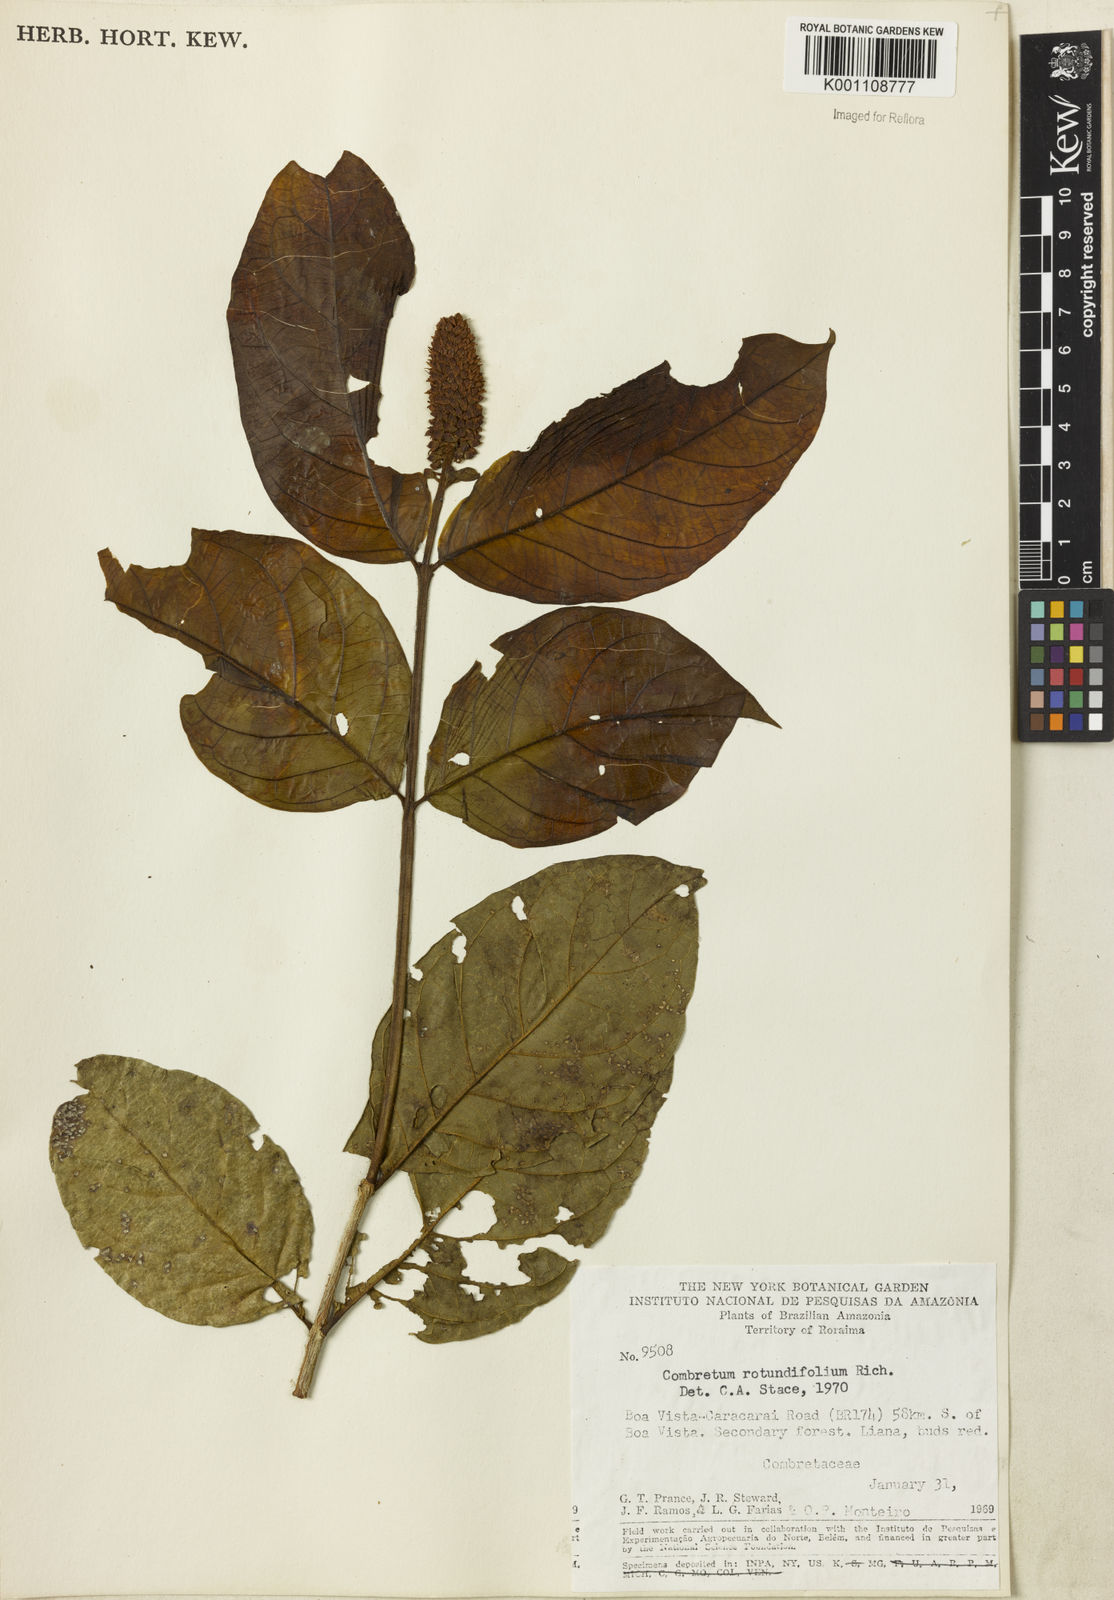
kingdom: Plantae
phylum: Tracheophyta
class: Magnoliopsida
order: Myrtales
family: Combretaceae
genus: Combretum
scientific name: Combretum rotundifolium
